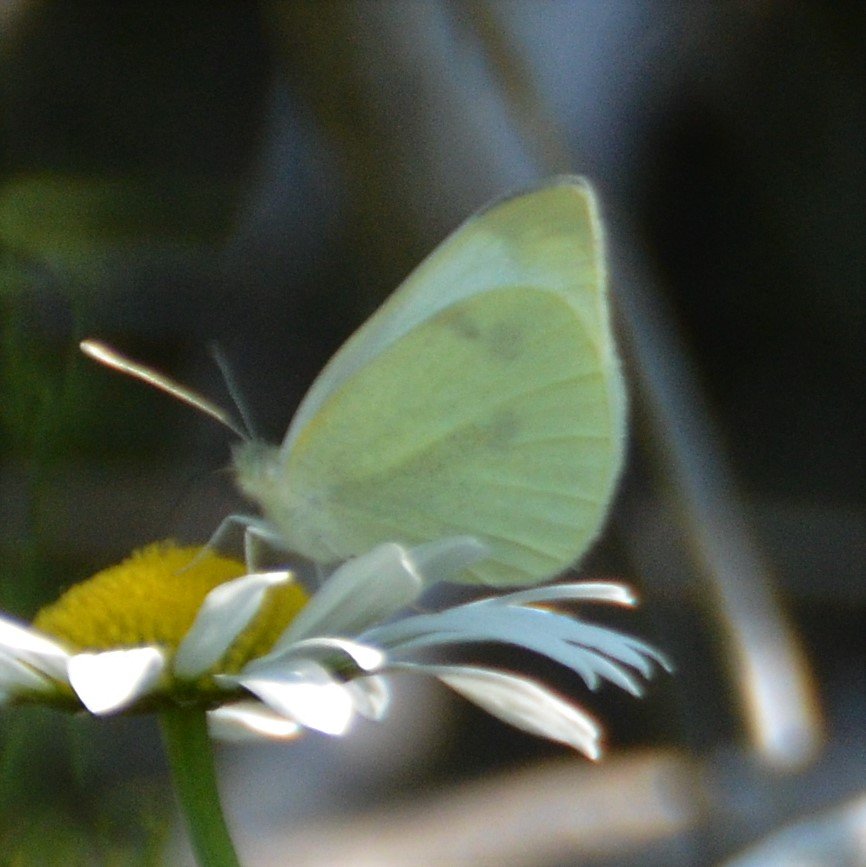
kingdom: Animalia
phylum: Arthropoda
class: Insecta
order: Lepidoptera
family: Pieridae
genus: Pieris
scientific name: Pieris rapae
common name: Cabbage White
